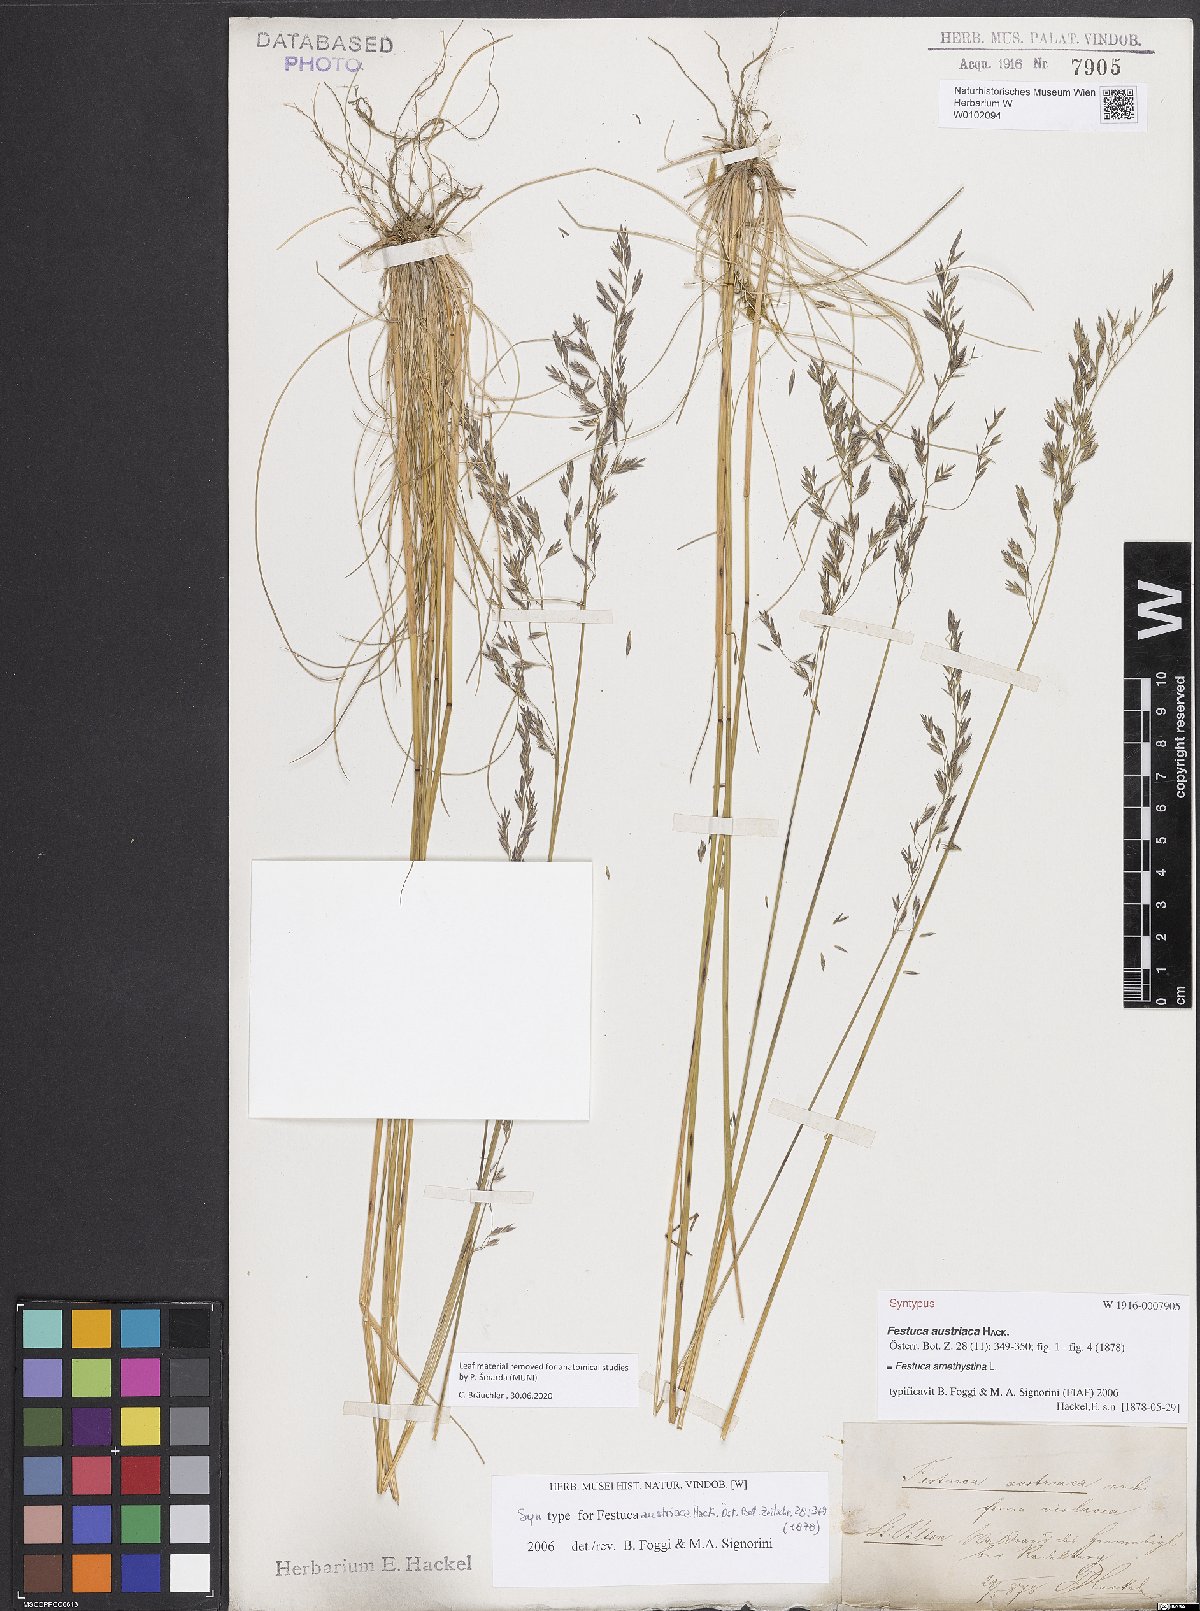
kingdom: Plantae
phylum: Tracheophyta
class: Liliopsida
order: Poales
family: Poaceae
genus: Festuca
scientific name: Festuca amethystina
